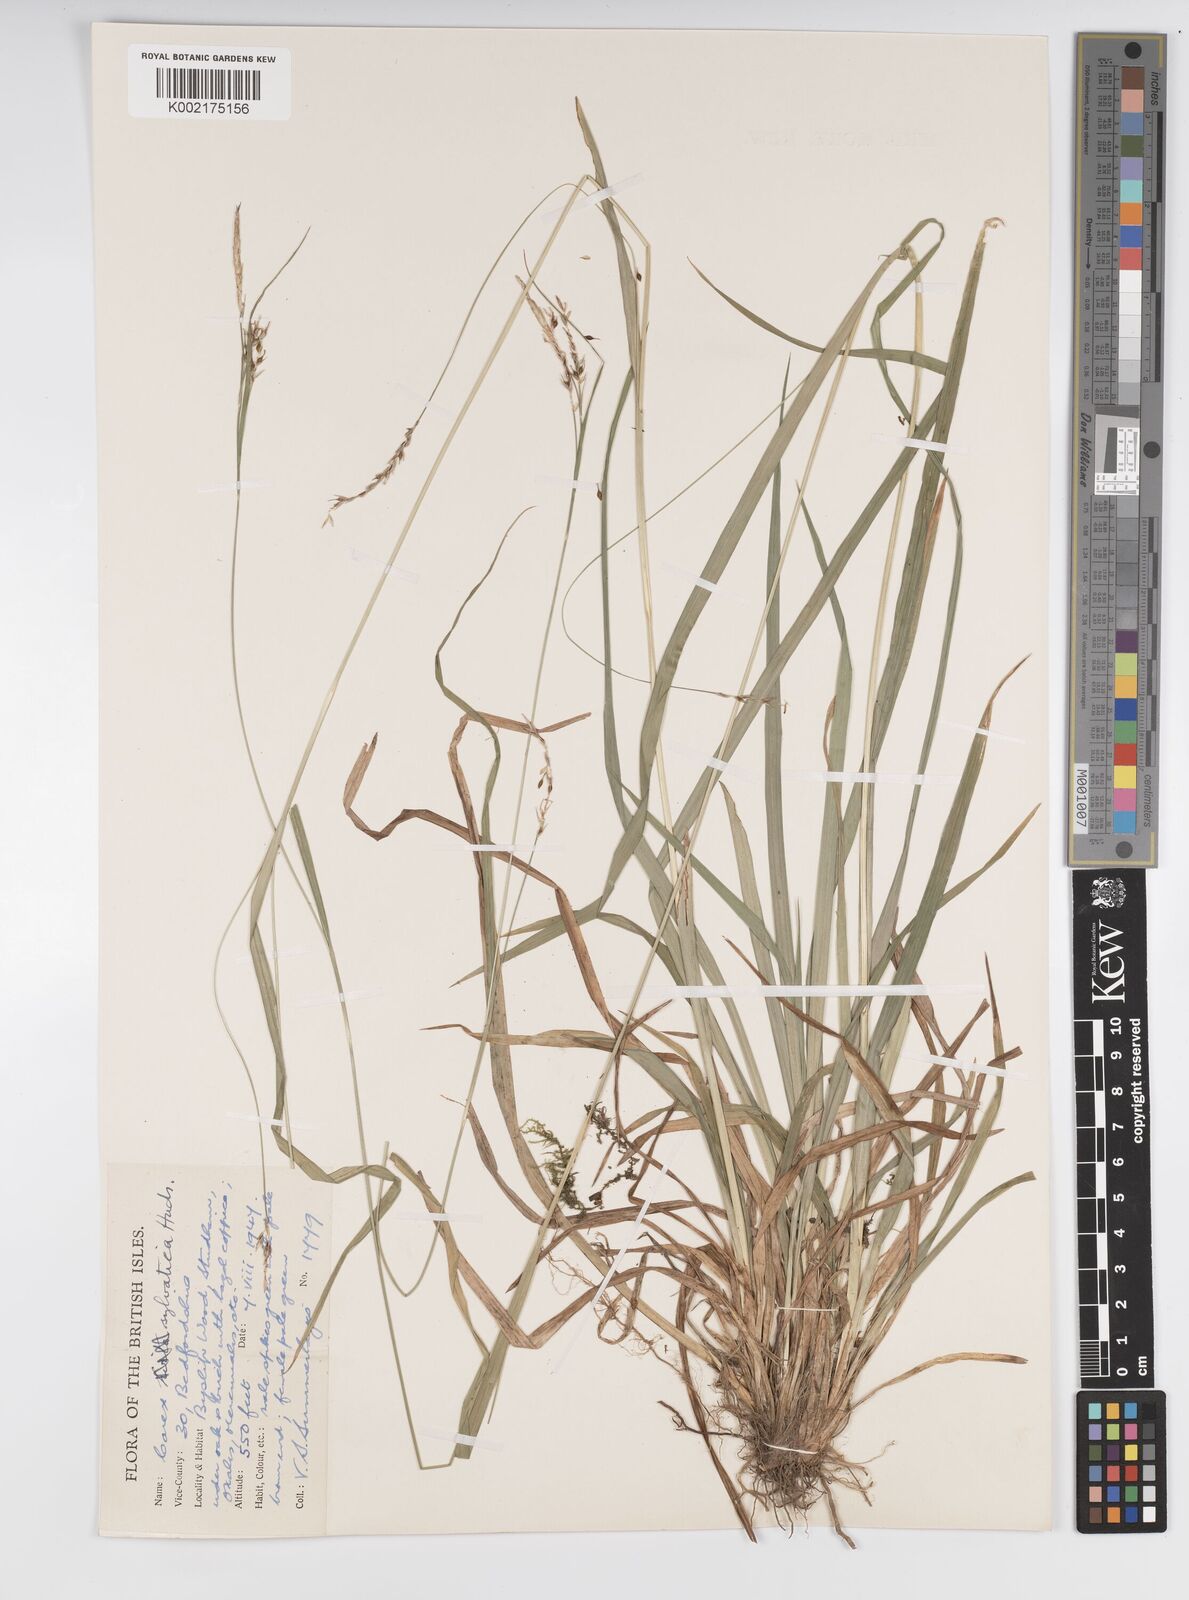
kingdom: Plantae
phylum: Tracheophyta
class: Liliopsida
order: Poales
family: Cyperaceae
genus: Carex
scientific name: Carex sylvatica
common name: Wood-sedge
